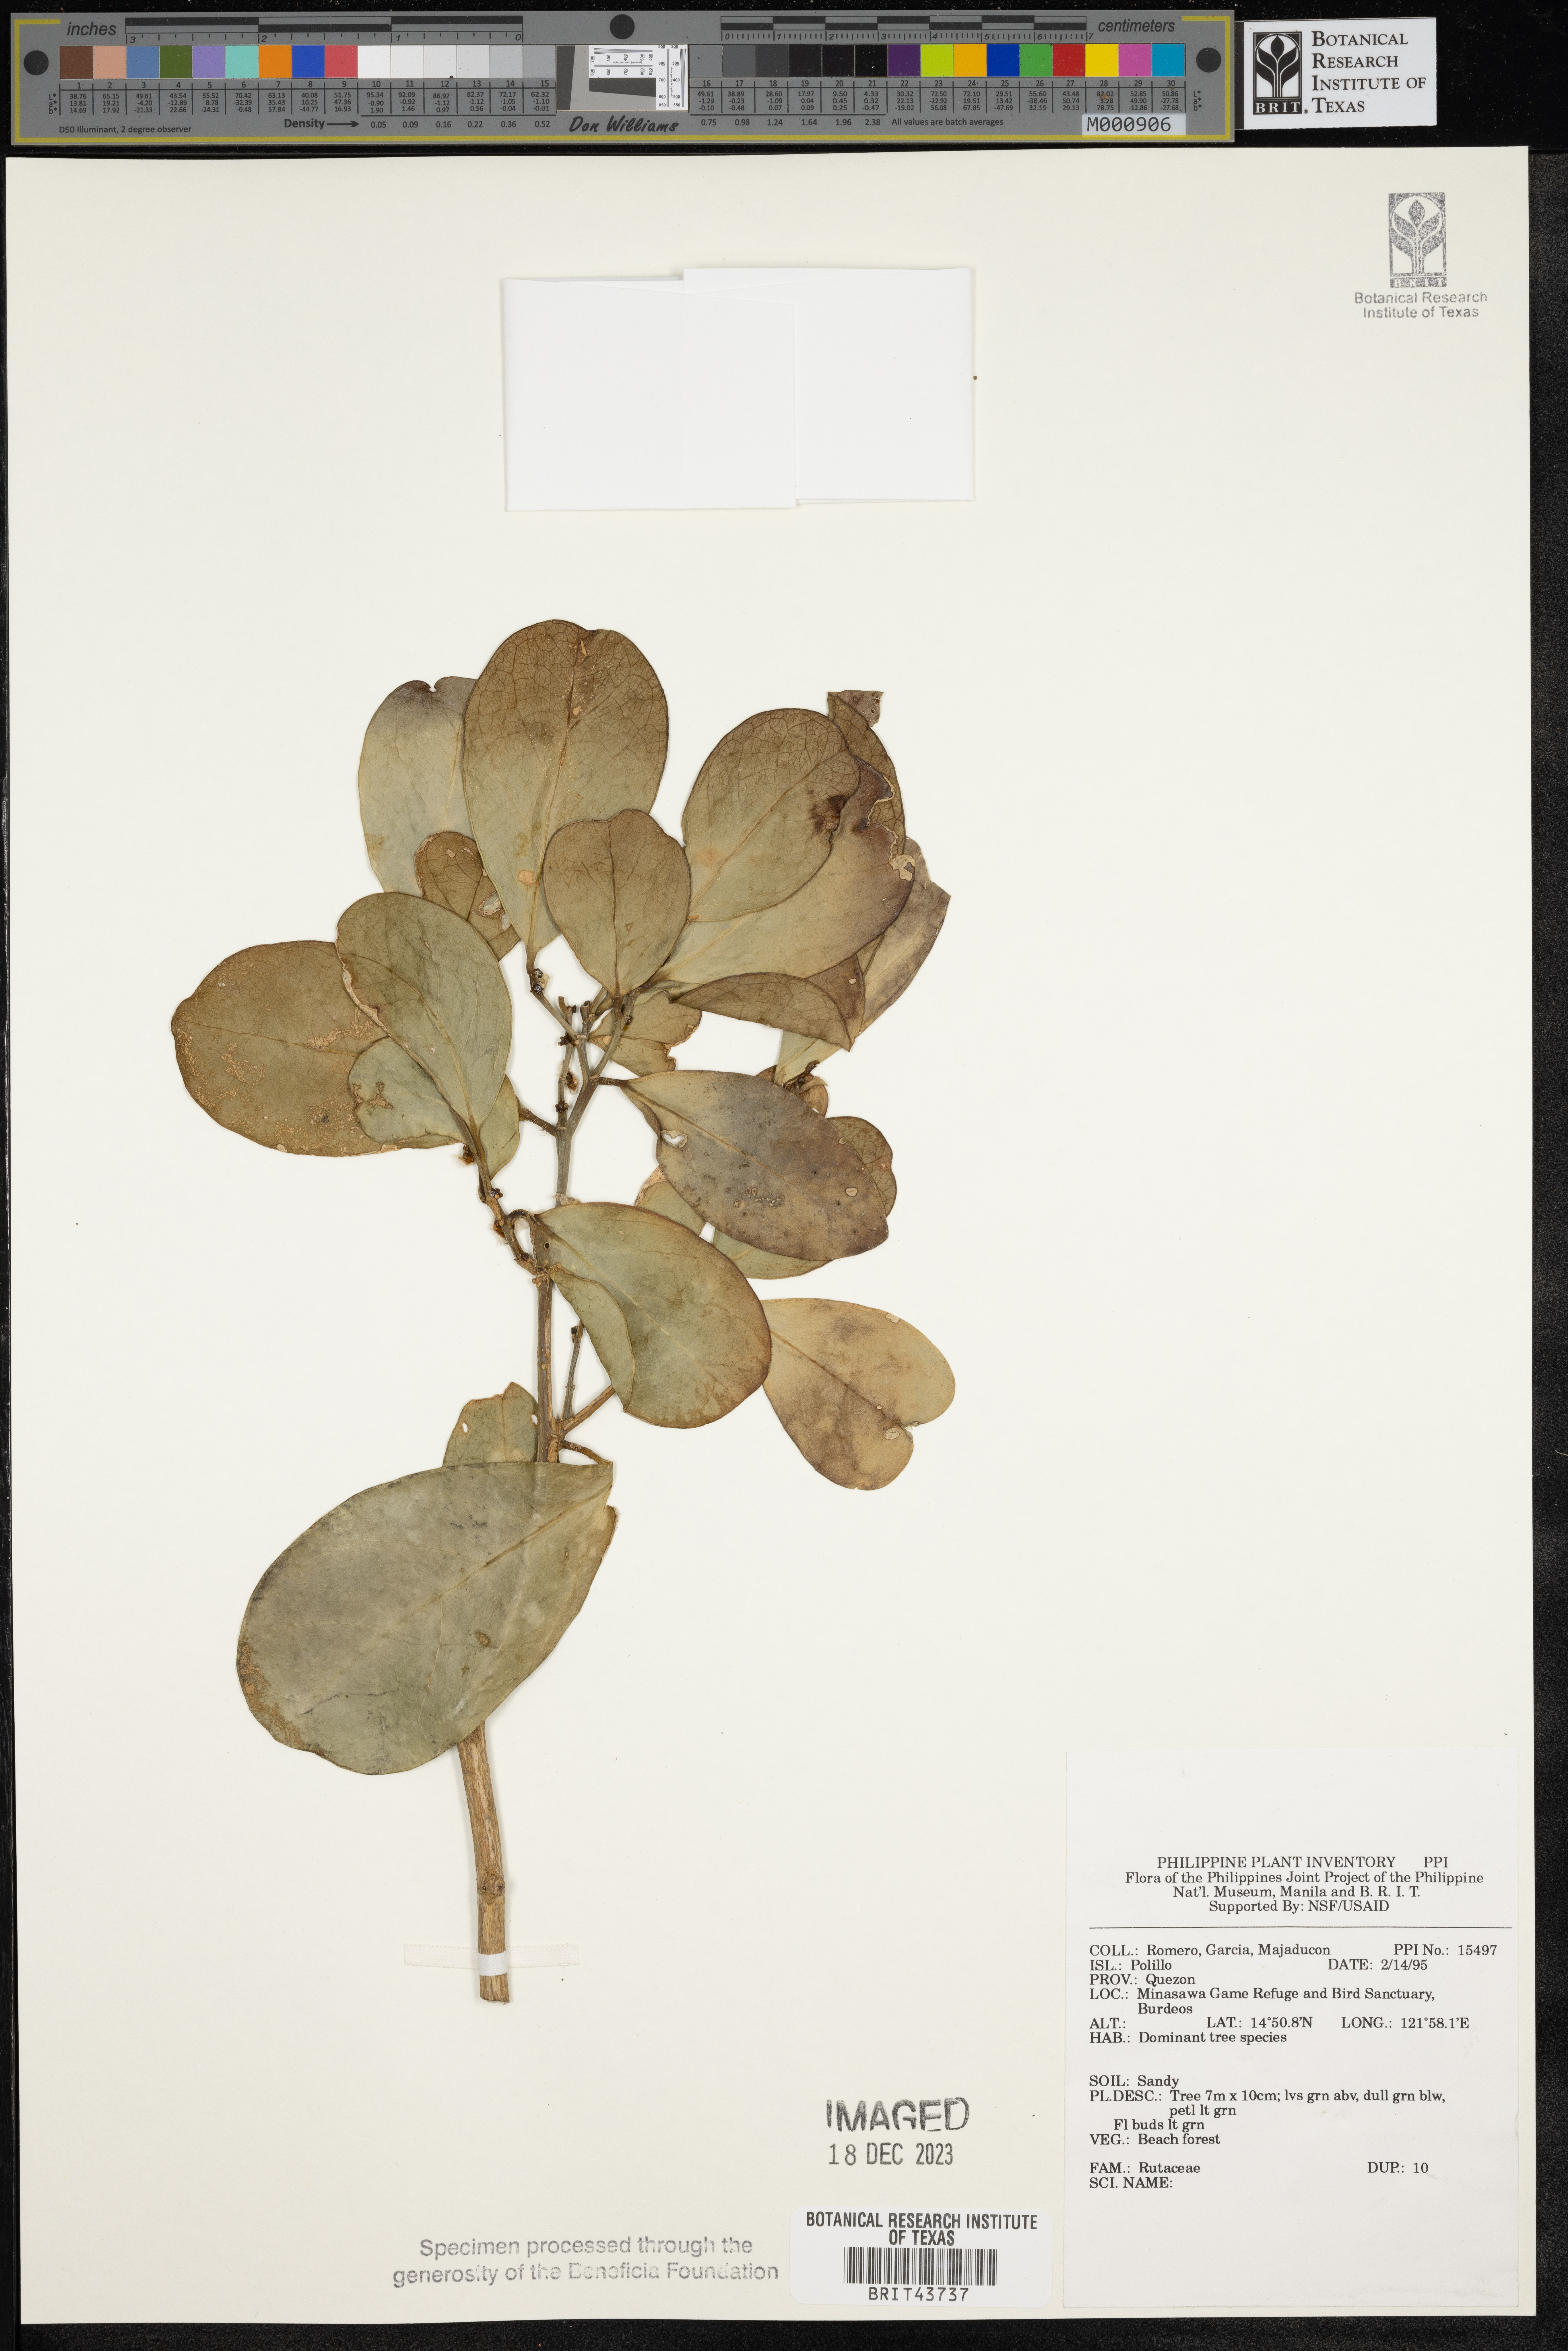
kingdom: Plantae
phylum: Tracheophyta
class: Magnoliopsida
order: Sapindales
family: Rutaceae
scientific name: Rutaceae
